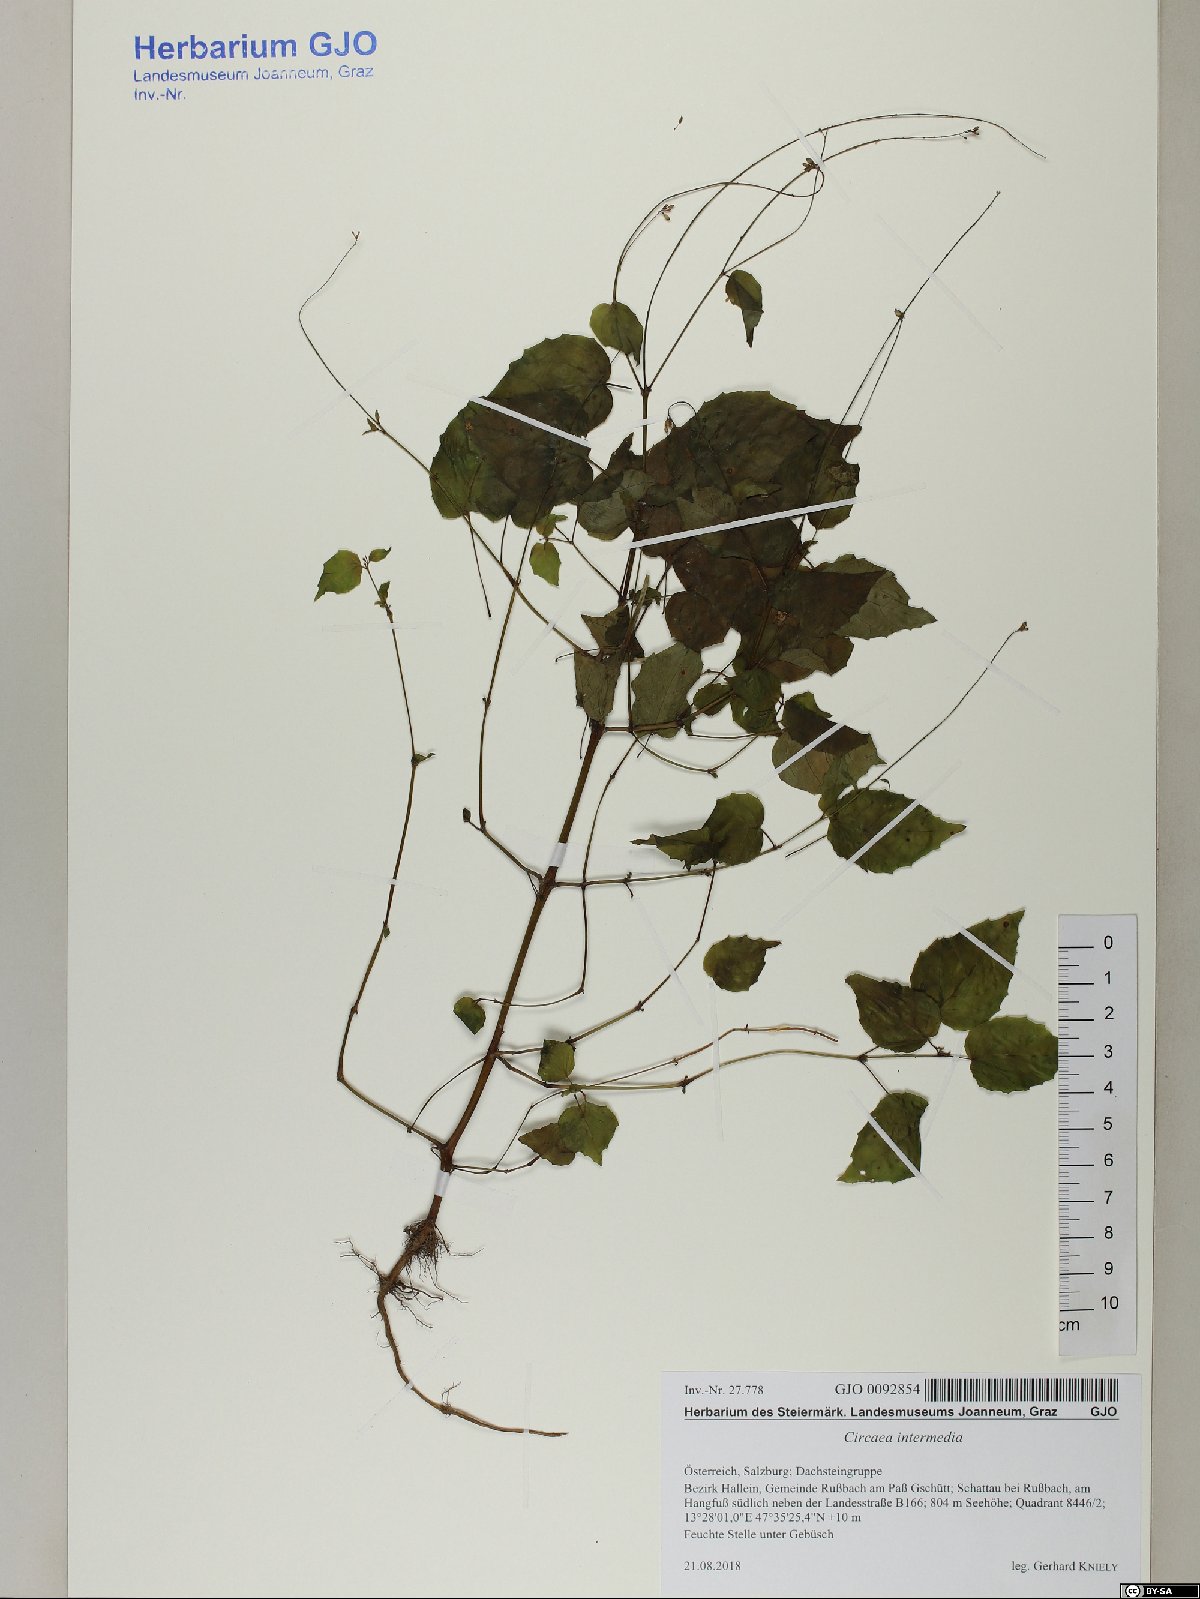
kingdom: Plantae
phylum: Tracheophyta
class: Magnoliopsida
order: Myrtales
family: Onagraceae
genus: Circaea
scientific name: Circaea intermedia
